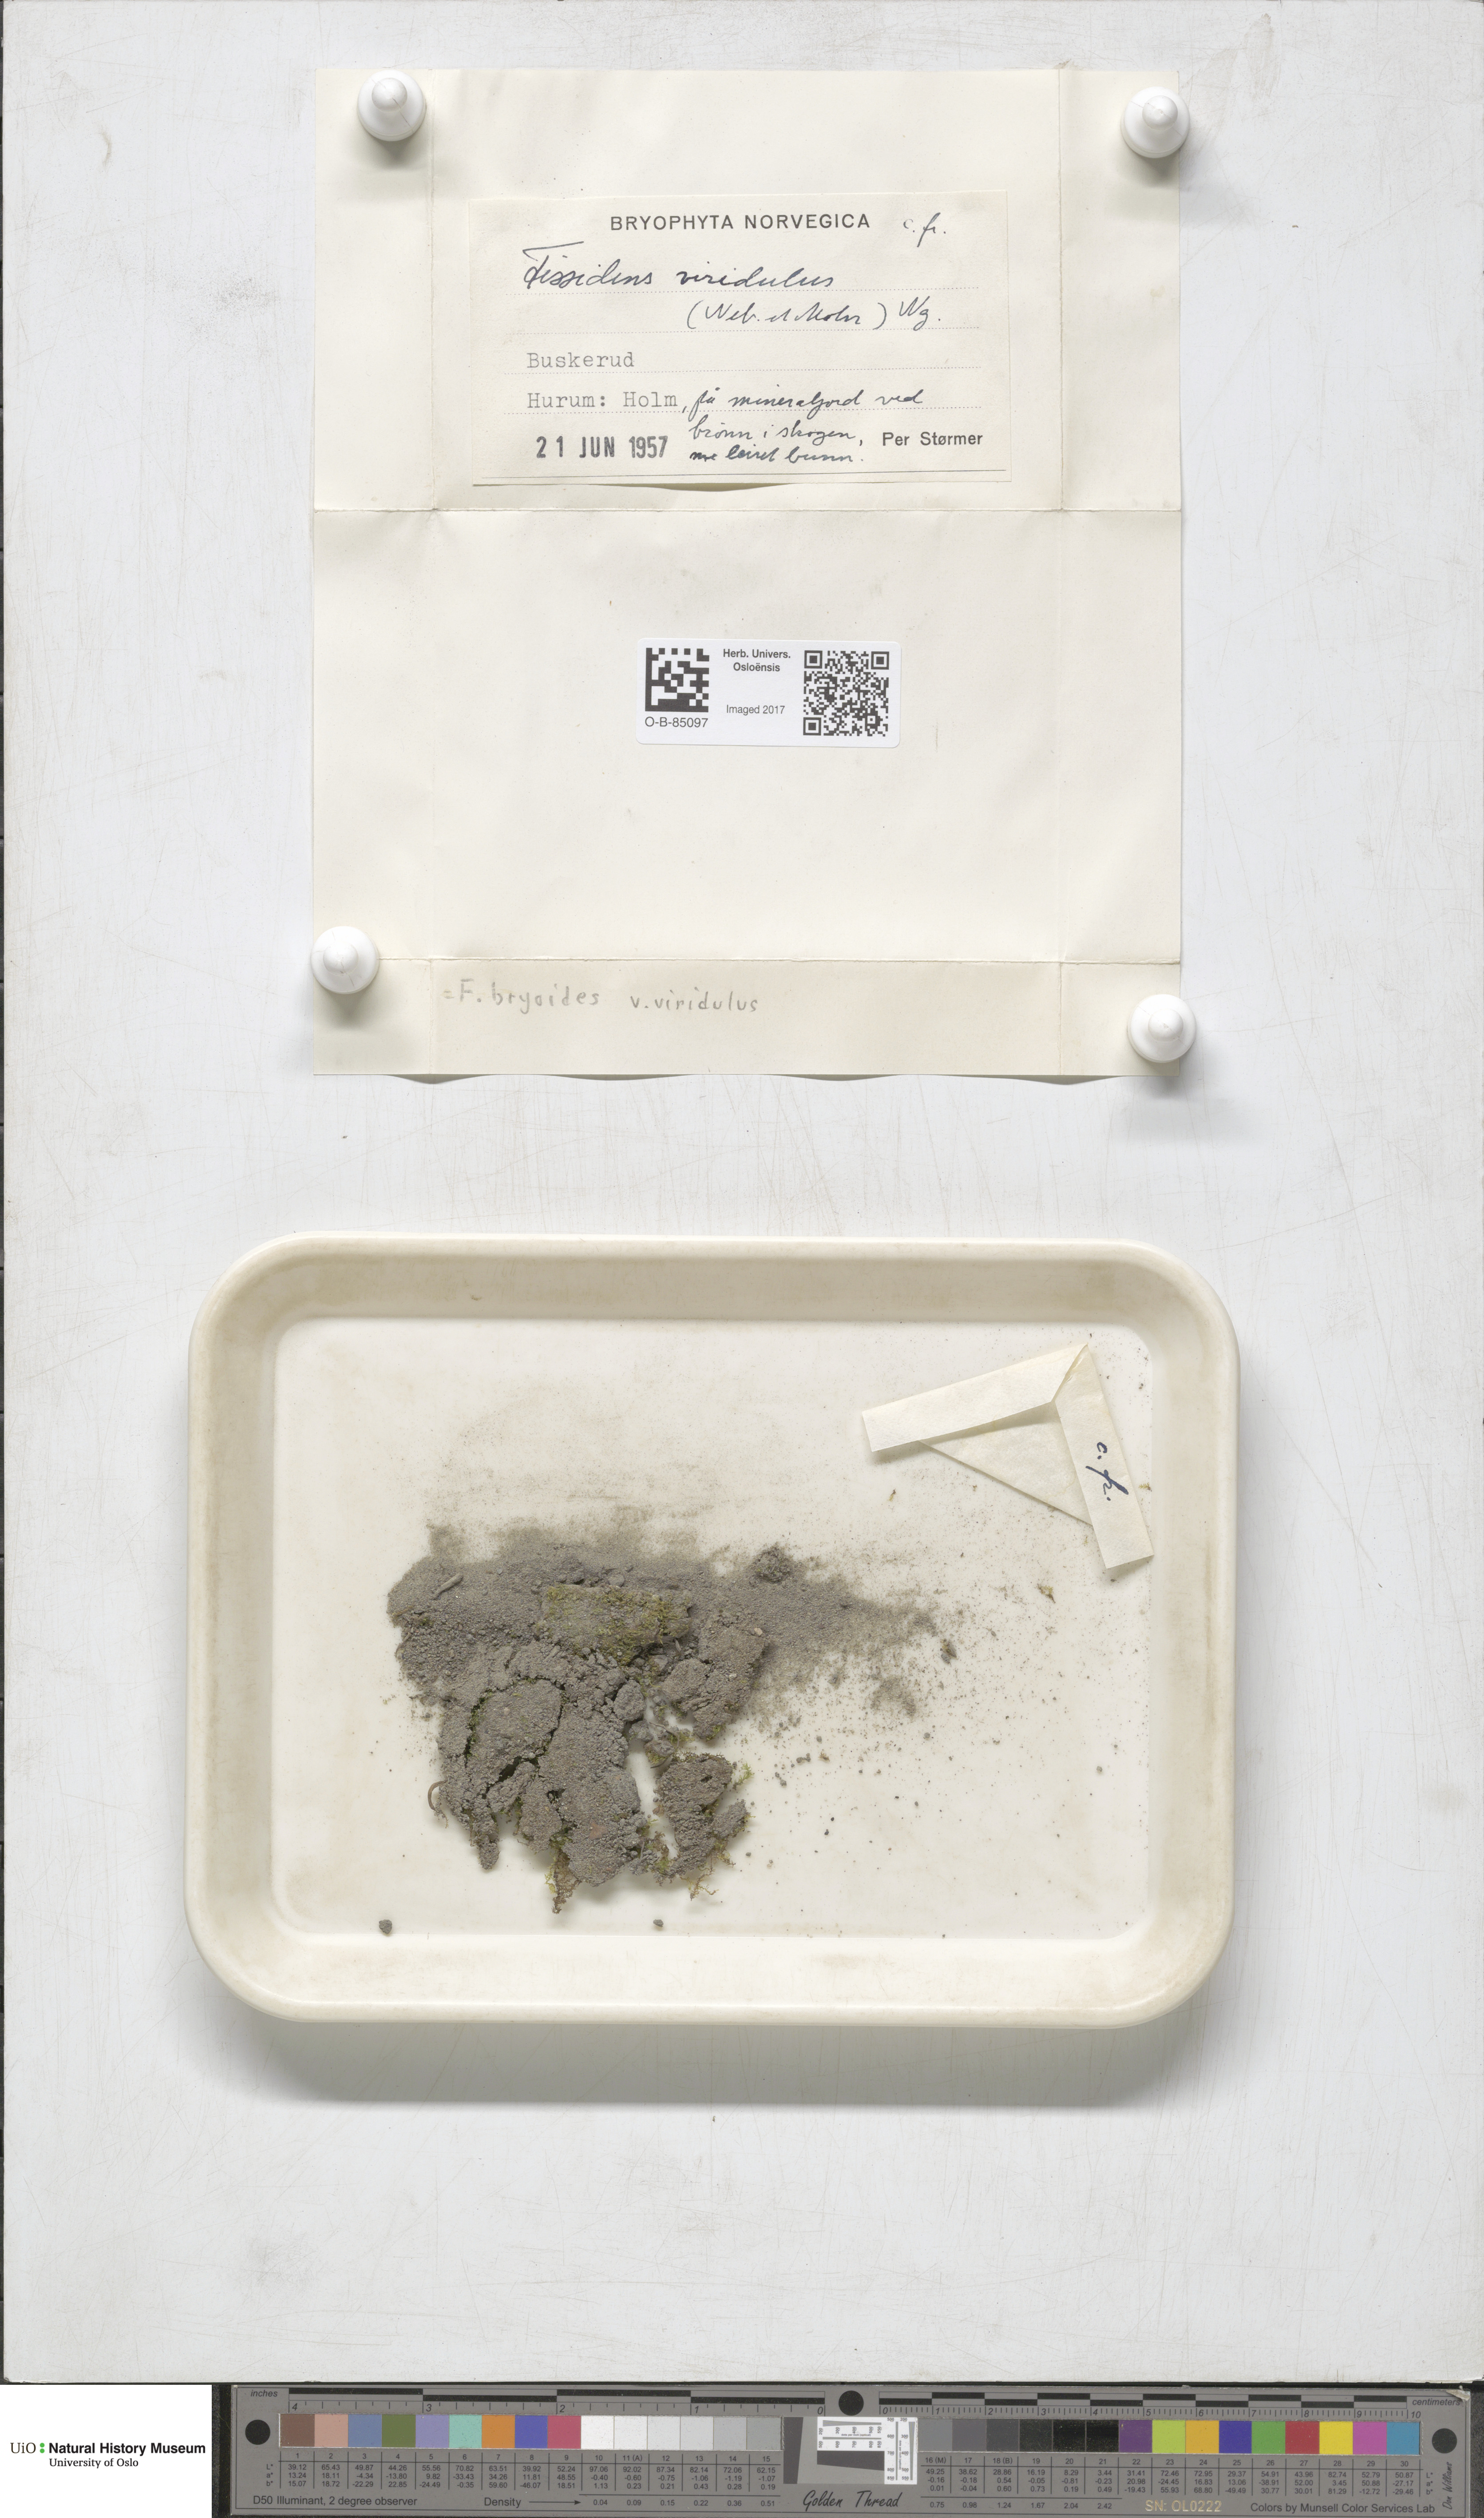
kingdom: Plantae
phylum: Bryophyta
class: Bryopsida
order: Dicranales
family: Fissidentaceae
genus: Fissidens
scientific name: Fissidens viridulus
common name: Green pocket-moss
